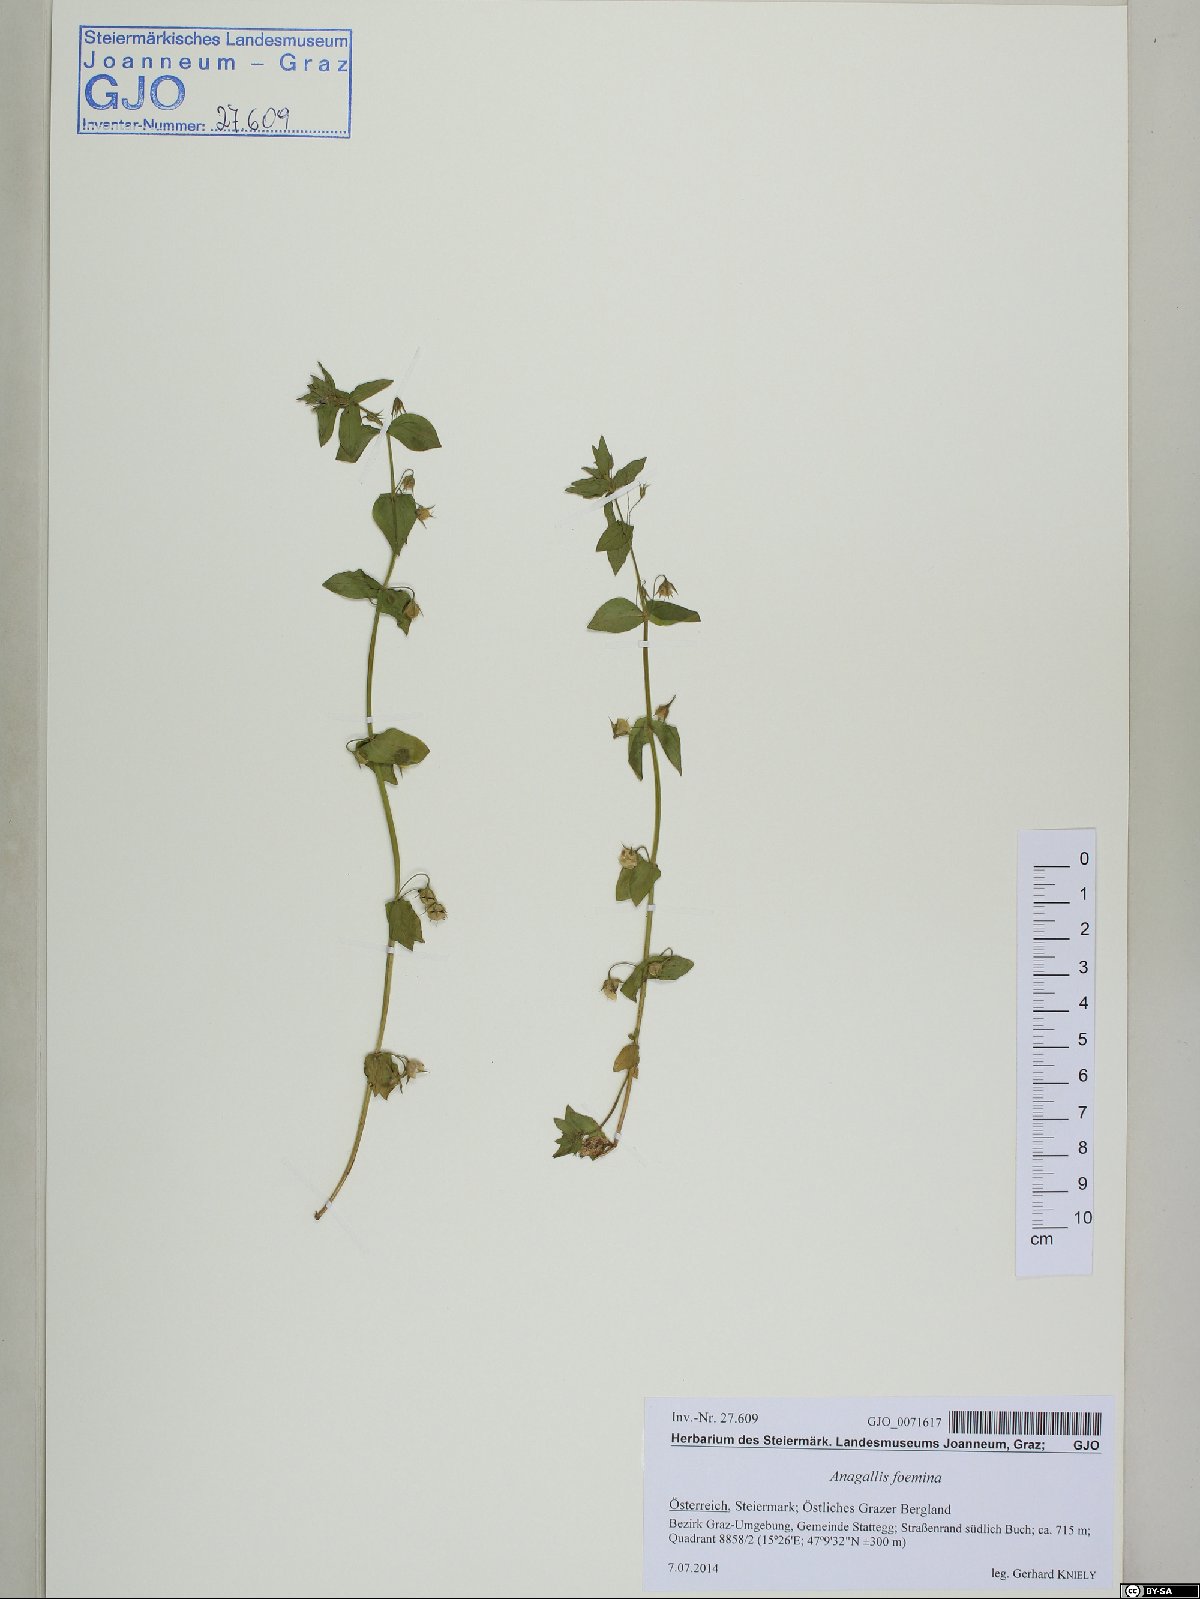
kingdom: Plantae
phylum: Tracheophyta
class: Magnoliopsida
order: Ericales
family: Primulaceae
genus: Lysimachia
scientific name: Lysimachia foemina
